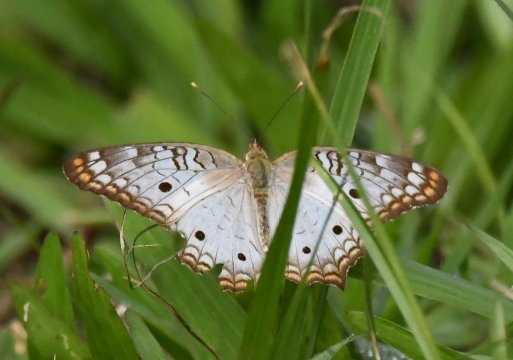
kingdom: Animalia
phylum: Arthropoda
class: Insecta
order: Lepidoptera
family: Nymphalidae
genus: Anartia
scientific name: Anartia jatrophae
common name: White Peacock
